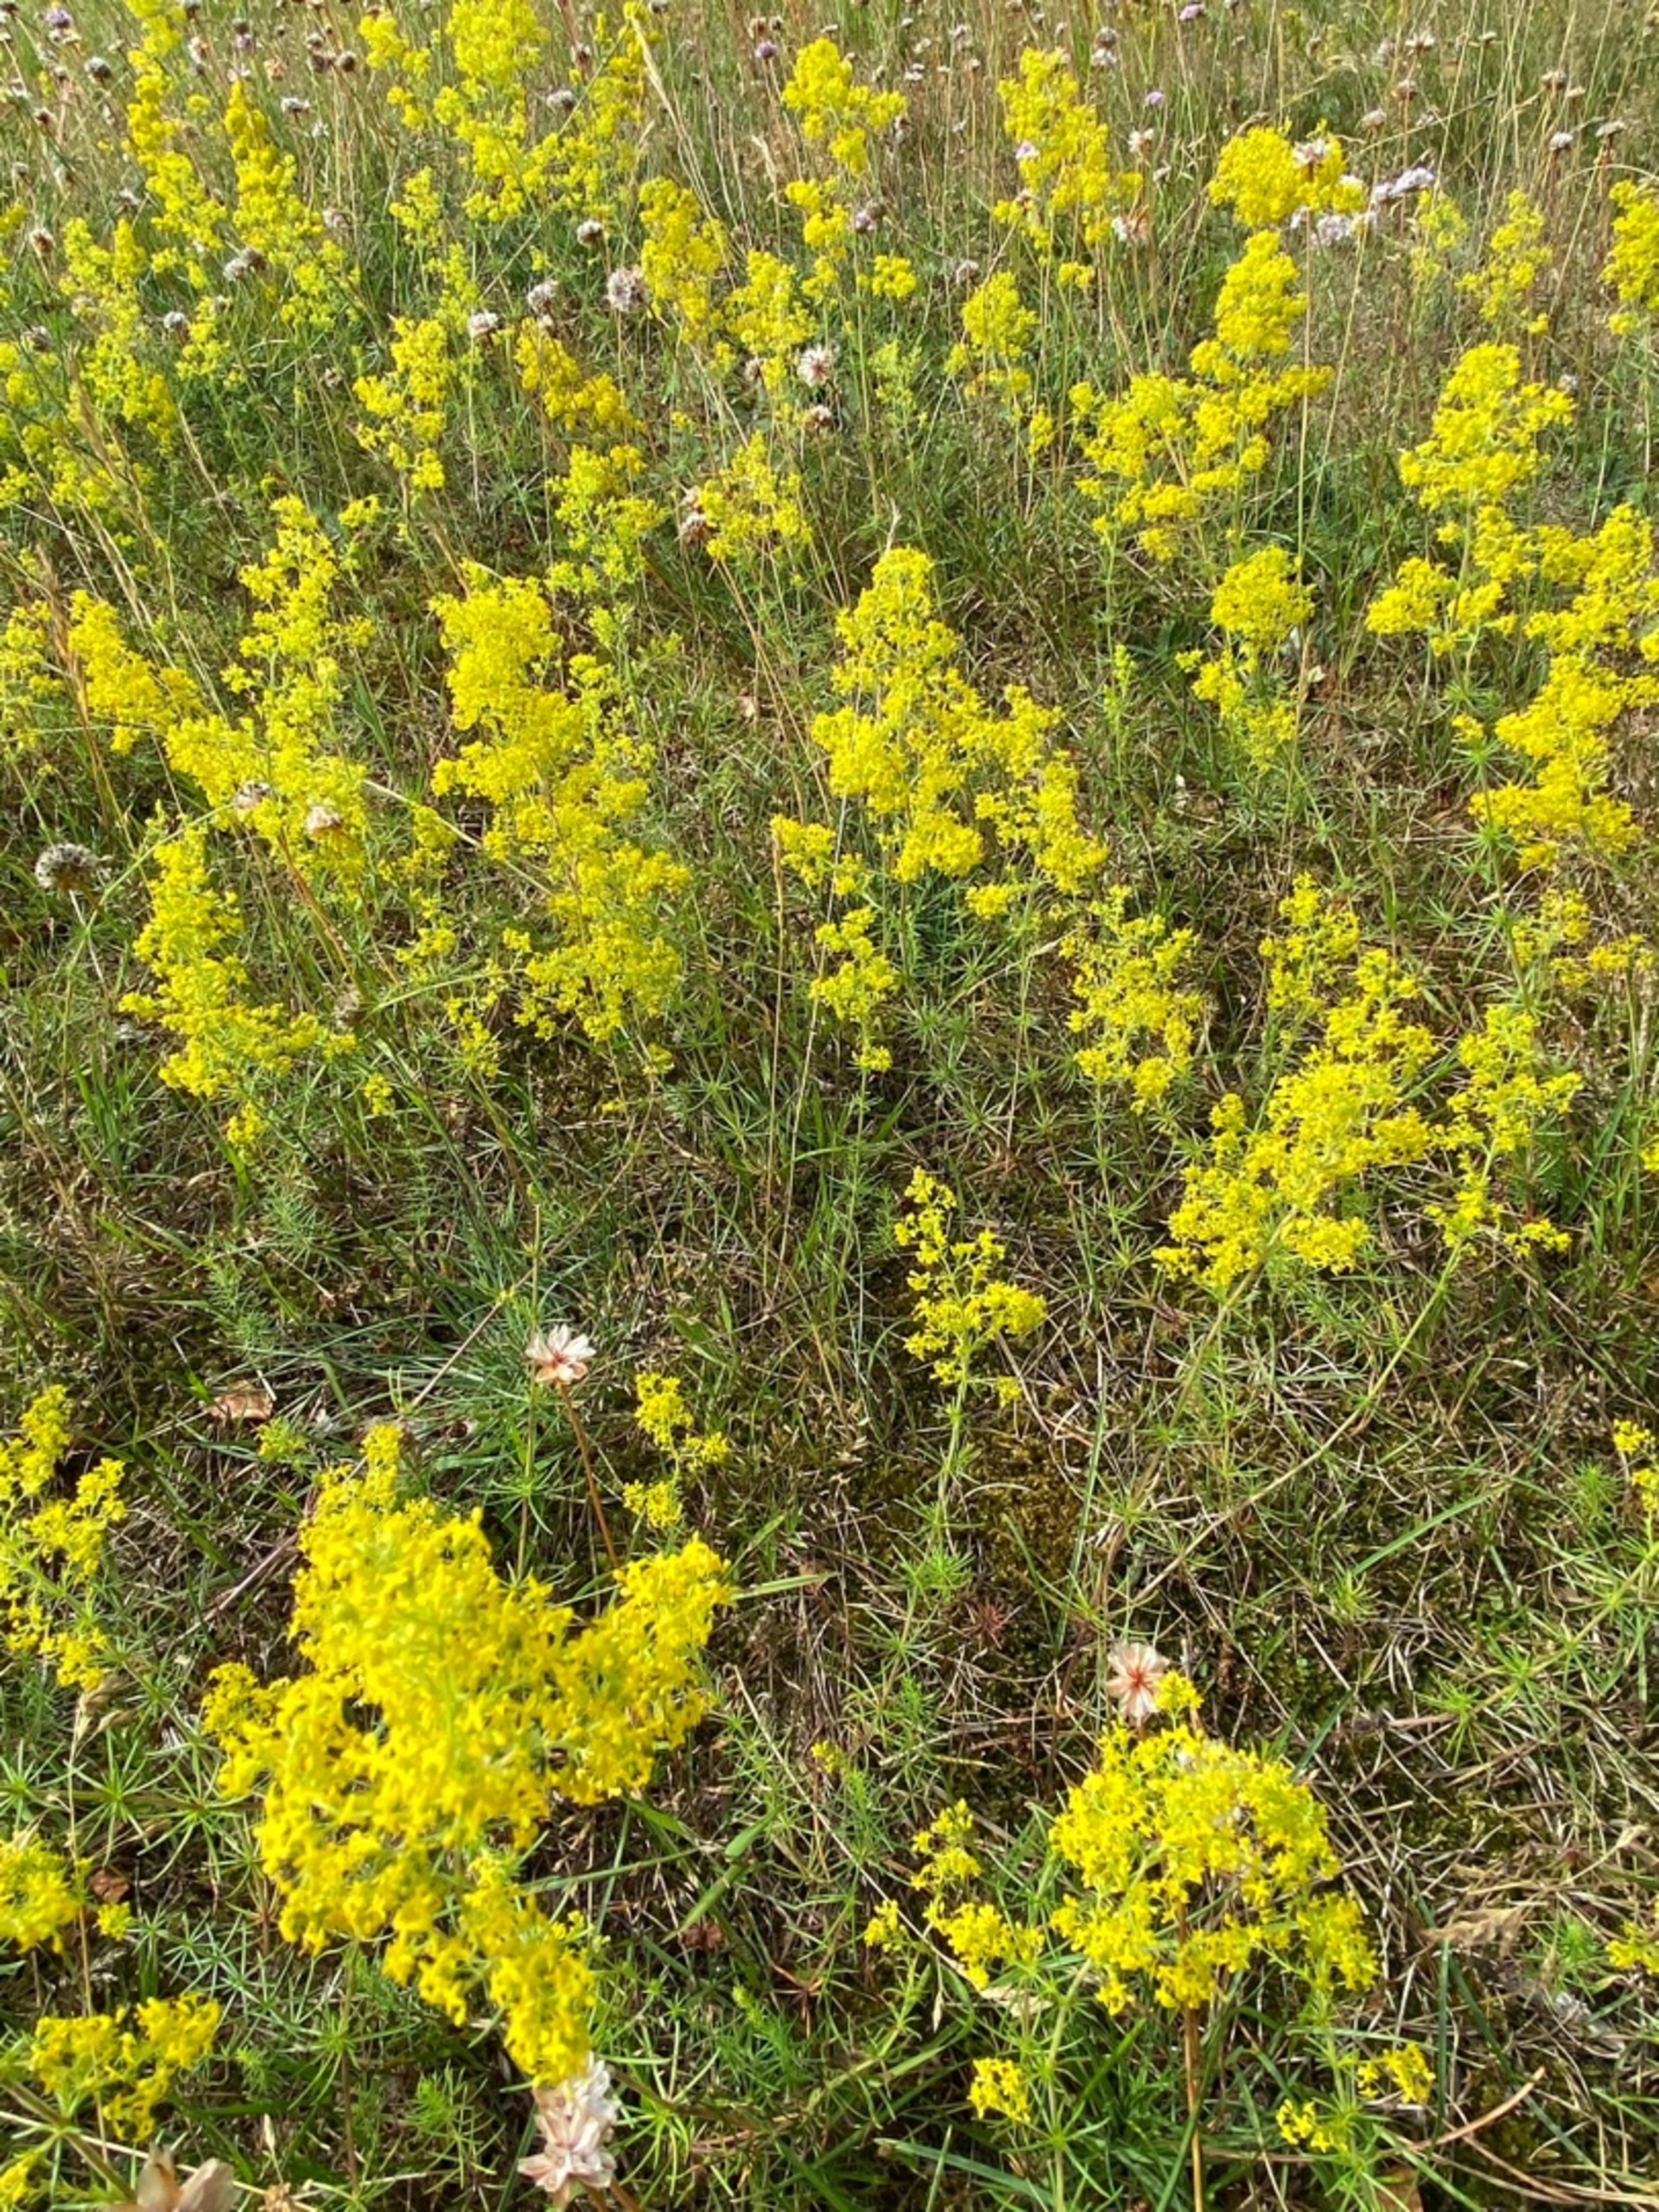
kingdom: Plantae
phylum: Tracheophyta
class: Magnoliopsida
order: Gentianales
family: Rubiaceae
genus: Galium
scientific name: Galium verum
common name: Gul snerre
